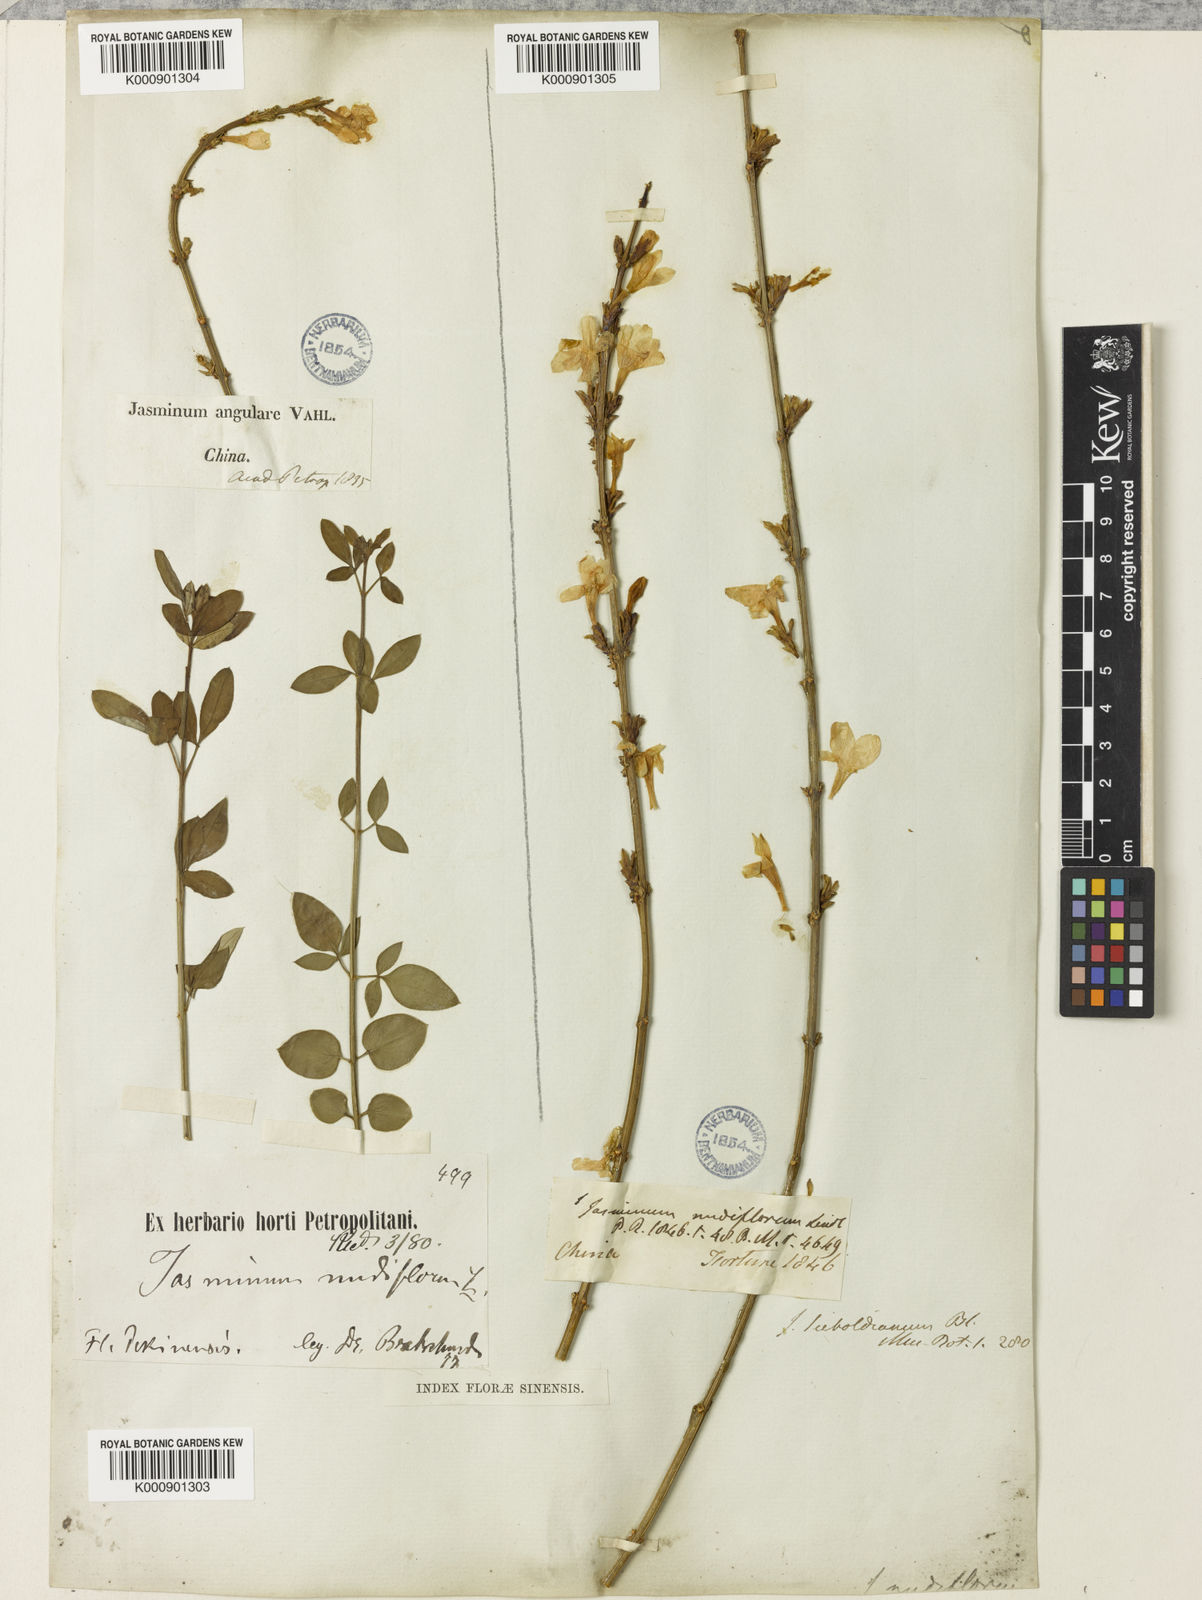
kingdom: Plantae
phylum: Tracheophyta
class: Magnoliopsida
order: Lamiales
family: Oleaceae
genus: Jasminum
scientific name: Jasminum nudiflorum
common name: Winter jasmine
